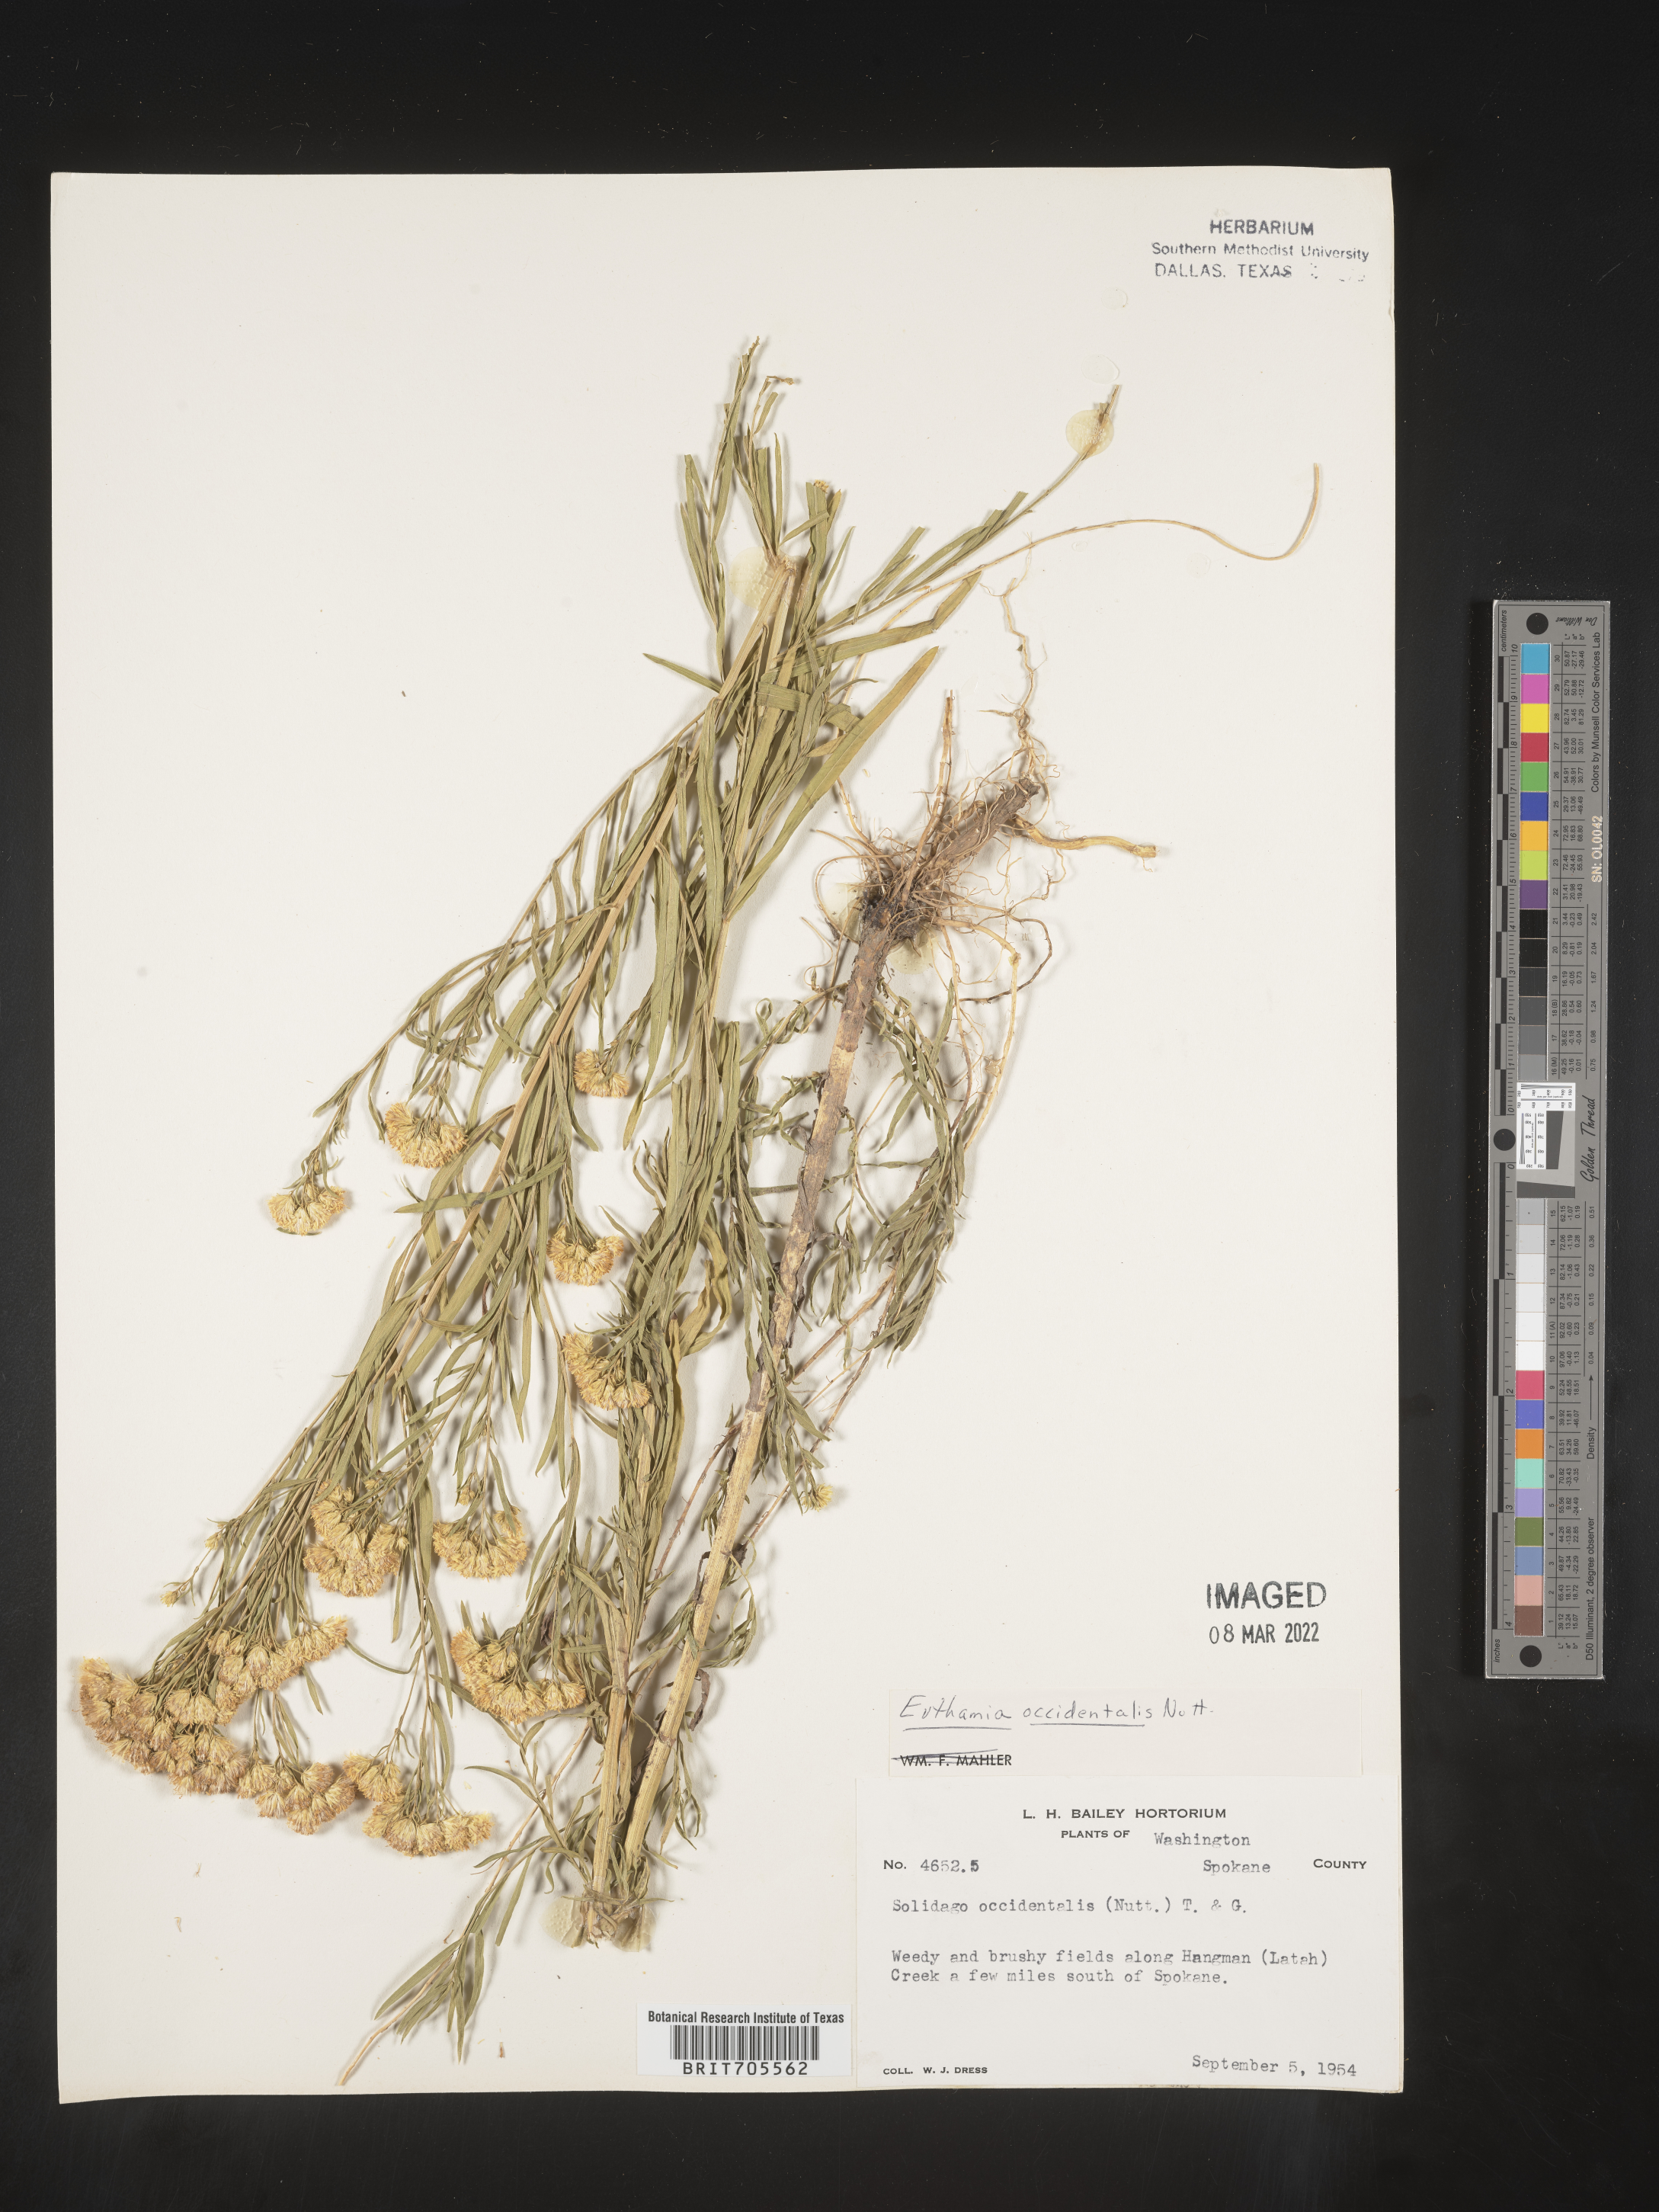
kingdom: Plantae
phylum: Tracheophyta
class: Magnoliopsida
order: Asterales
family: Asteraceae
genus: Euthamia
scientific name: Euthamia occidentalis
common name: Western goldentop
